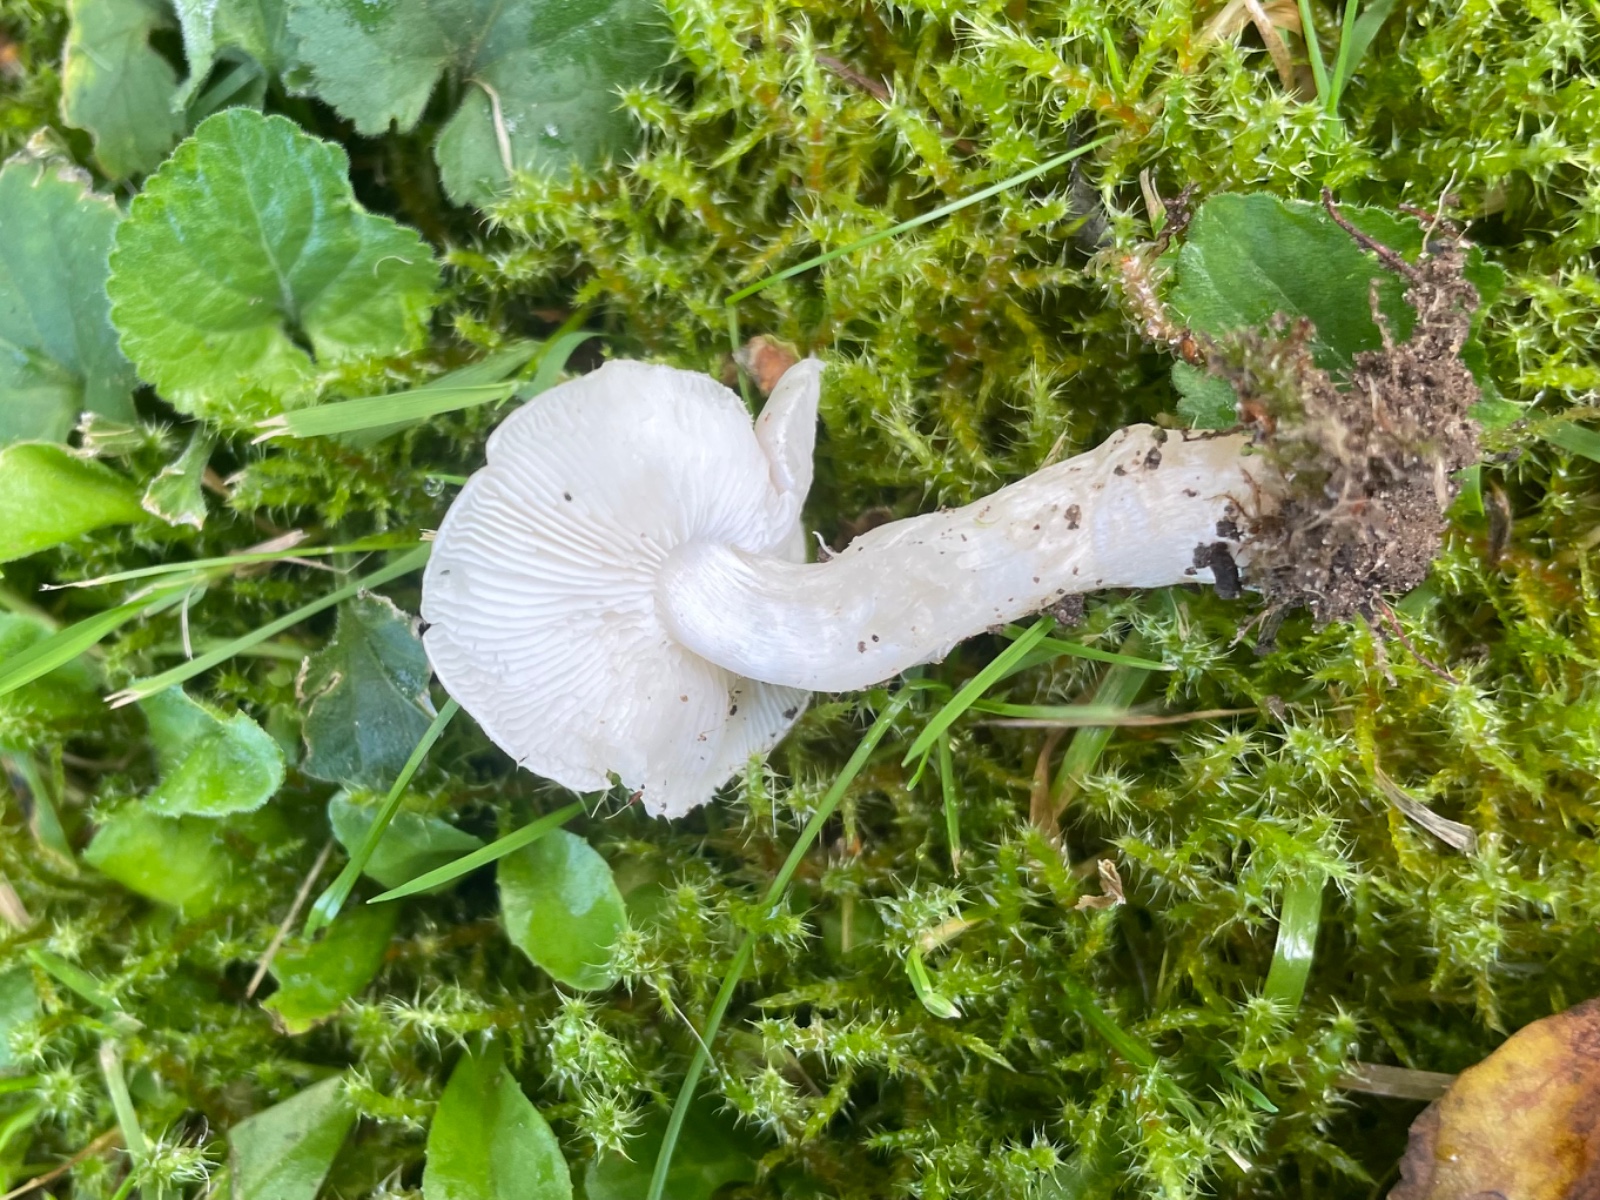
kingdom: Fungi
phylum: Basidiomycota
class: Agaricomycetes
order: Agaricales
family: Lyophyllaceae
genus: Tricholomella
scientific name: Tricholomella constricta
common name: ring-fagerhat
